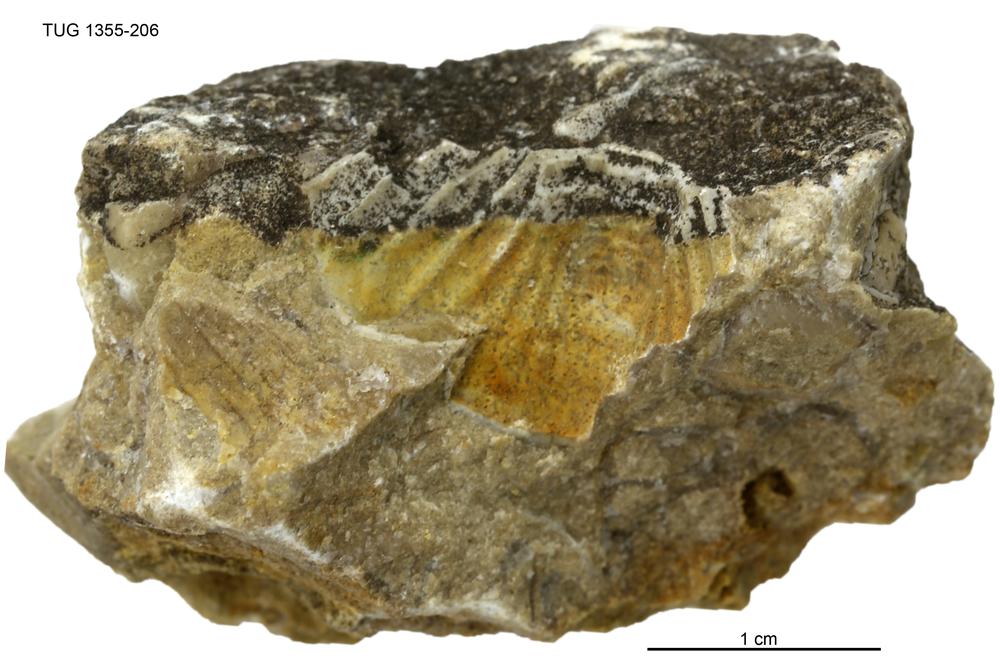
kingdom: Animalia
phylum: Arthropoda
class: Trilobita
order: Phacopida
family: Pterygometopidae
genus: Chasmops
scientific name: Chasmops macrourus
